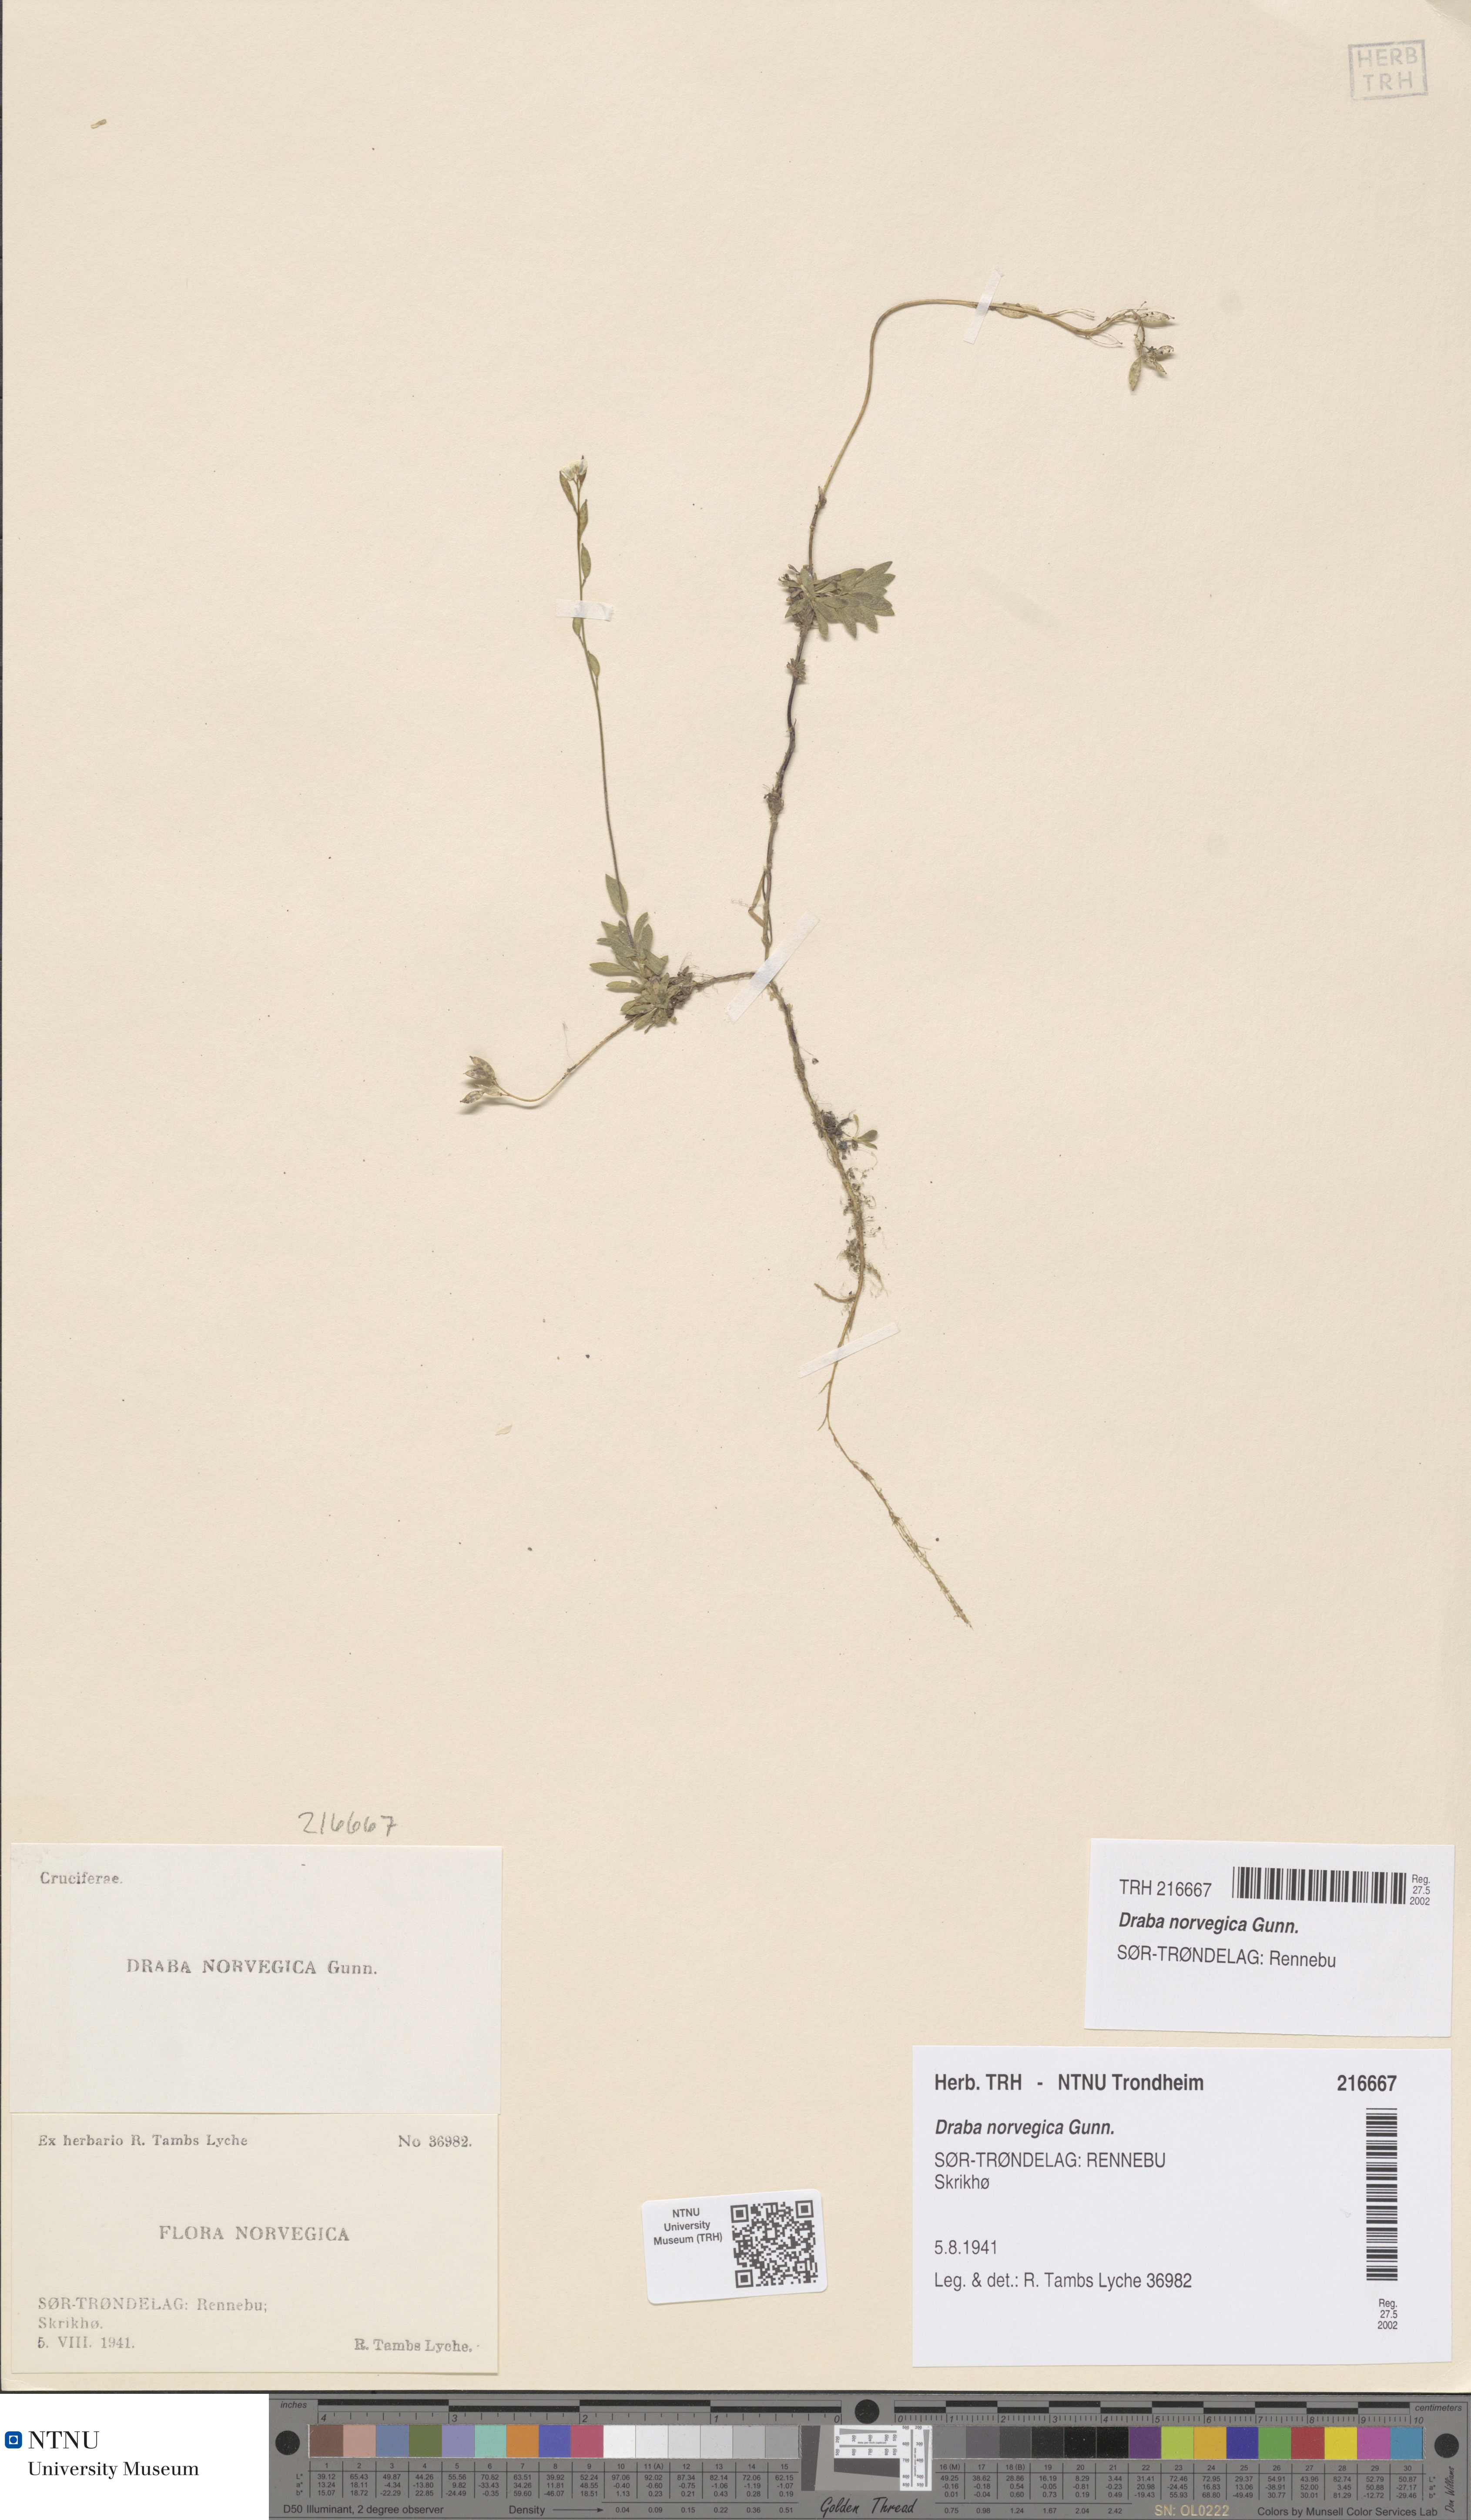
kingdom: Plantae
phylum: Tracheophyta
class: Magnoliopsida
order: Brassicales
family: Brassicaceae
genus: Draba
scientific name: Draba norvegica
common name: Rock whitlowgrass
